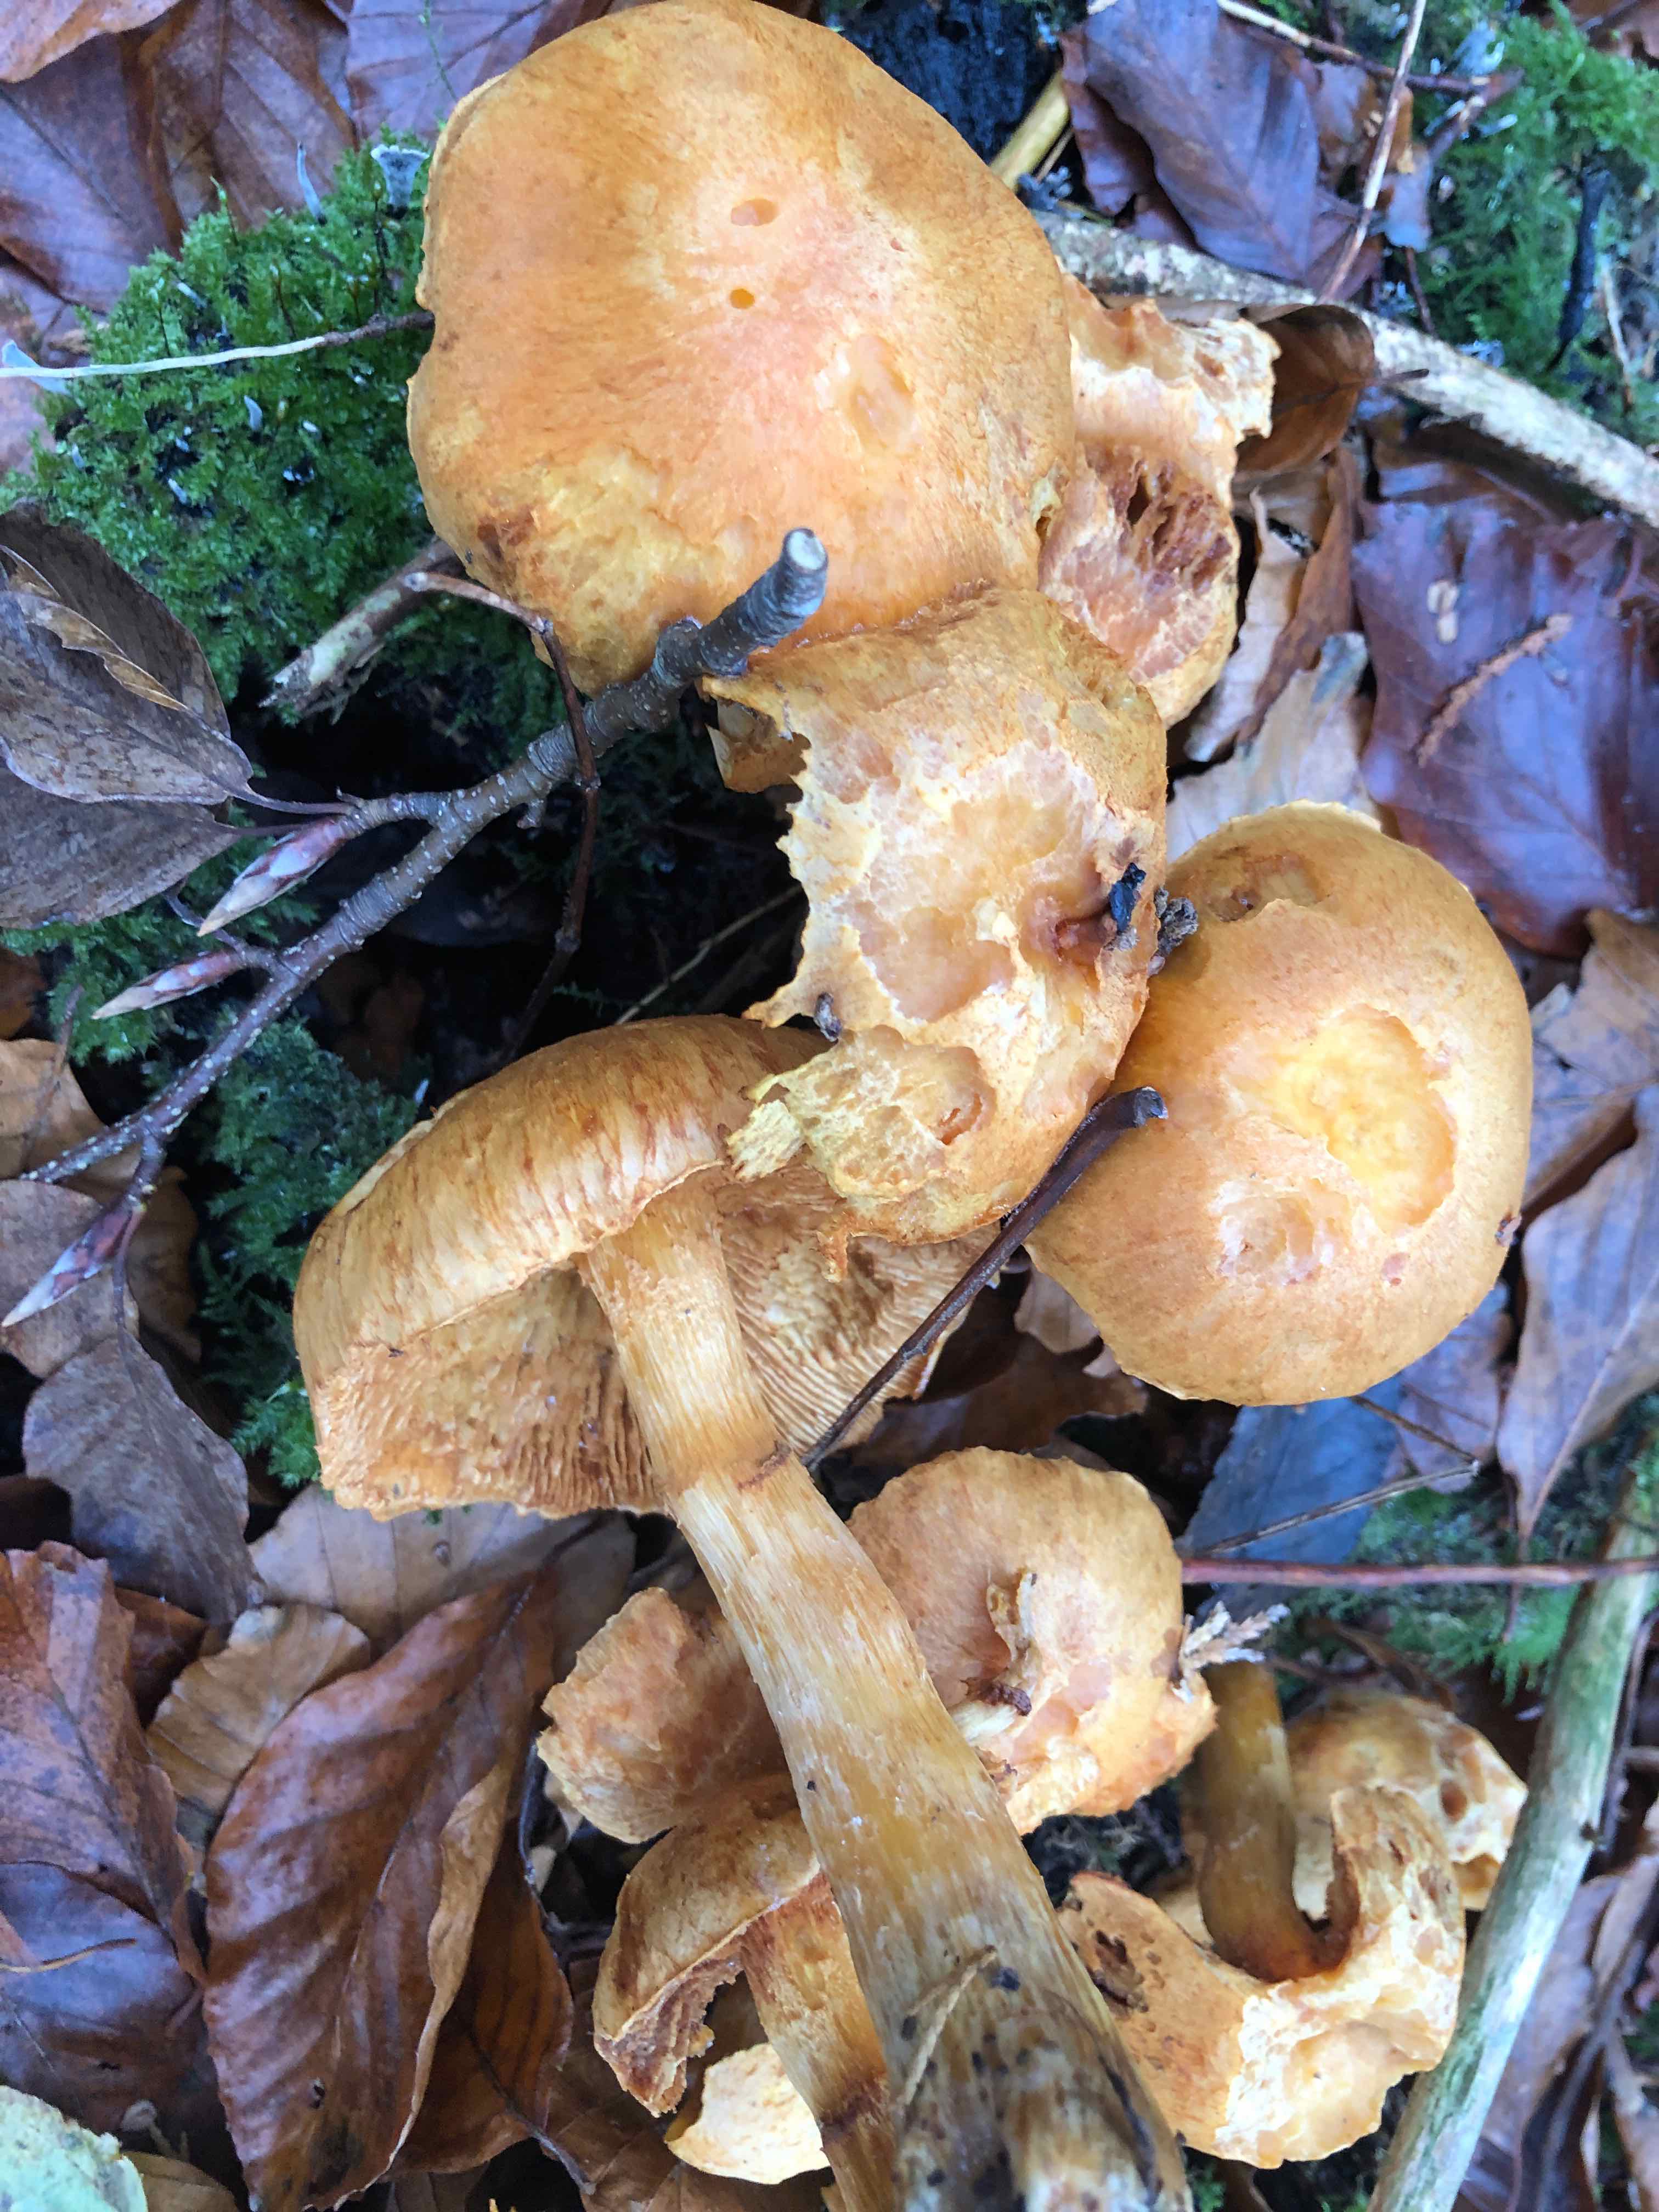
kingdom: Fungi
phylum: Basidiomycota
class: Agaricomycetes
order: Agaricales
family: Hymenogastraceae
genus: Gymnopilus
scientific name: Gymnopilus spectabilis
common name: fibret flammehat
